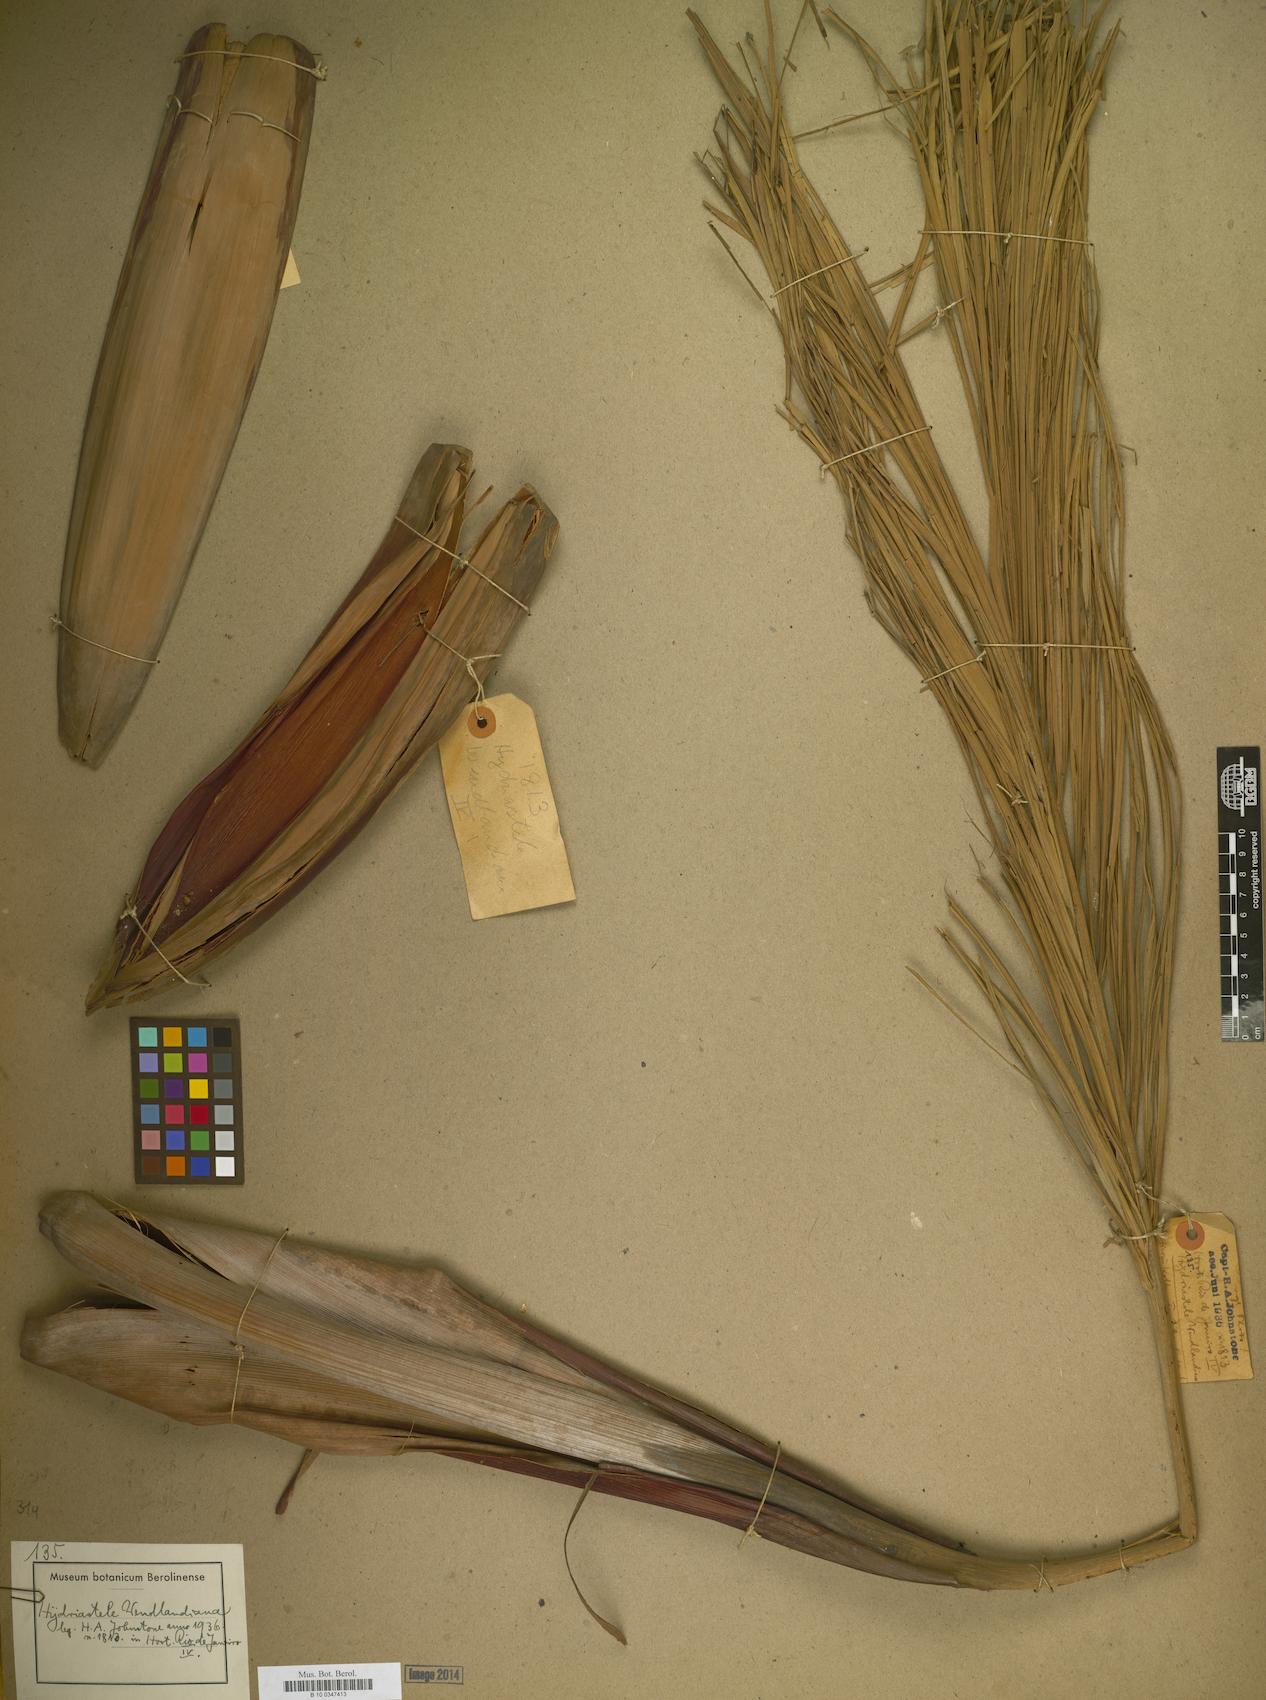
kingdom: Plantae
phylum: Tracheophyta
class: Liliopsida
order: Arecales
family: Arecaceae
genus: Hydriastele
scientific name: Hydriastele wendlandiana
